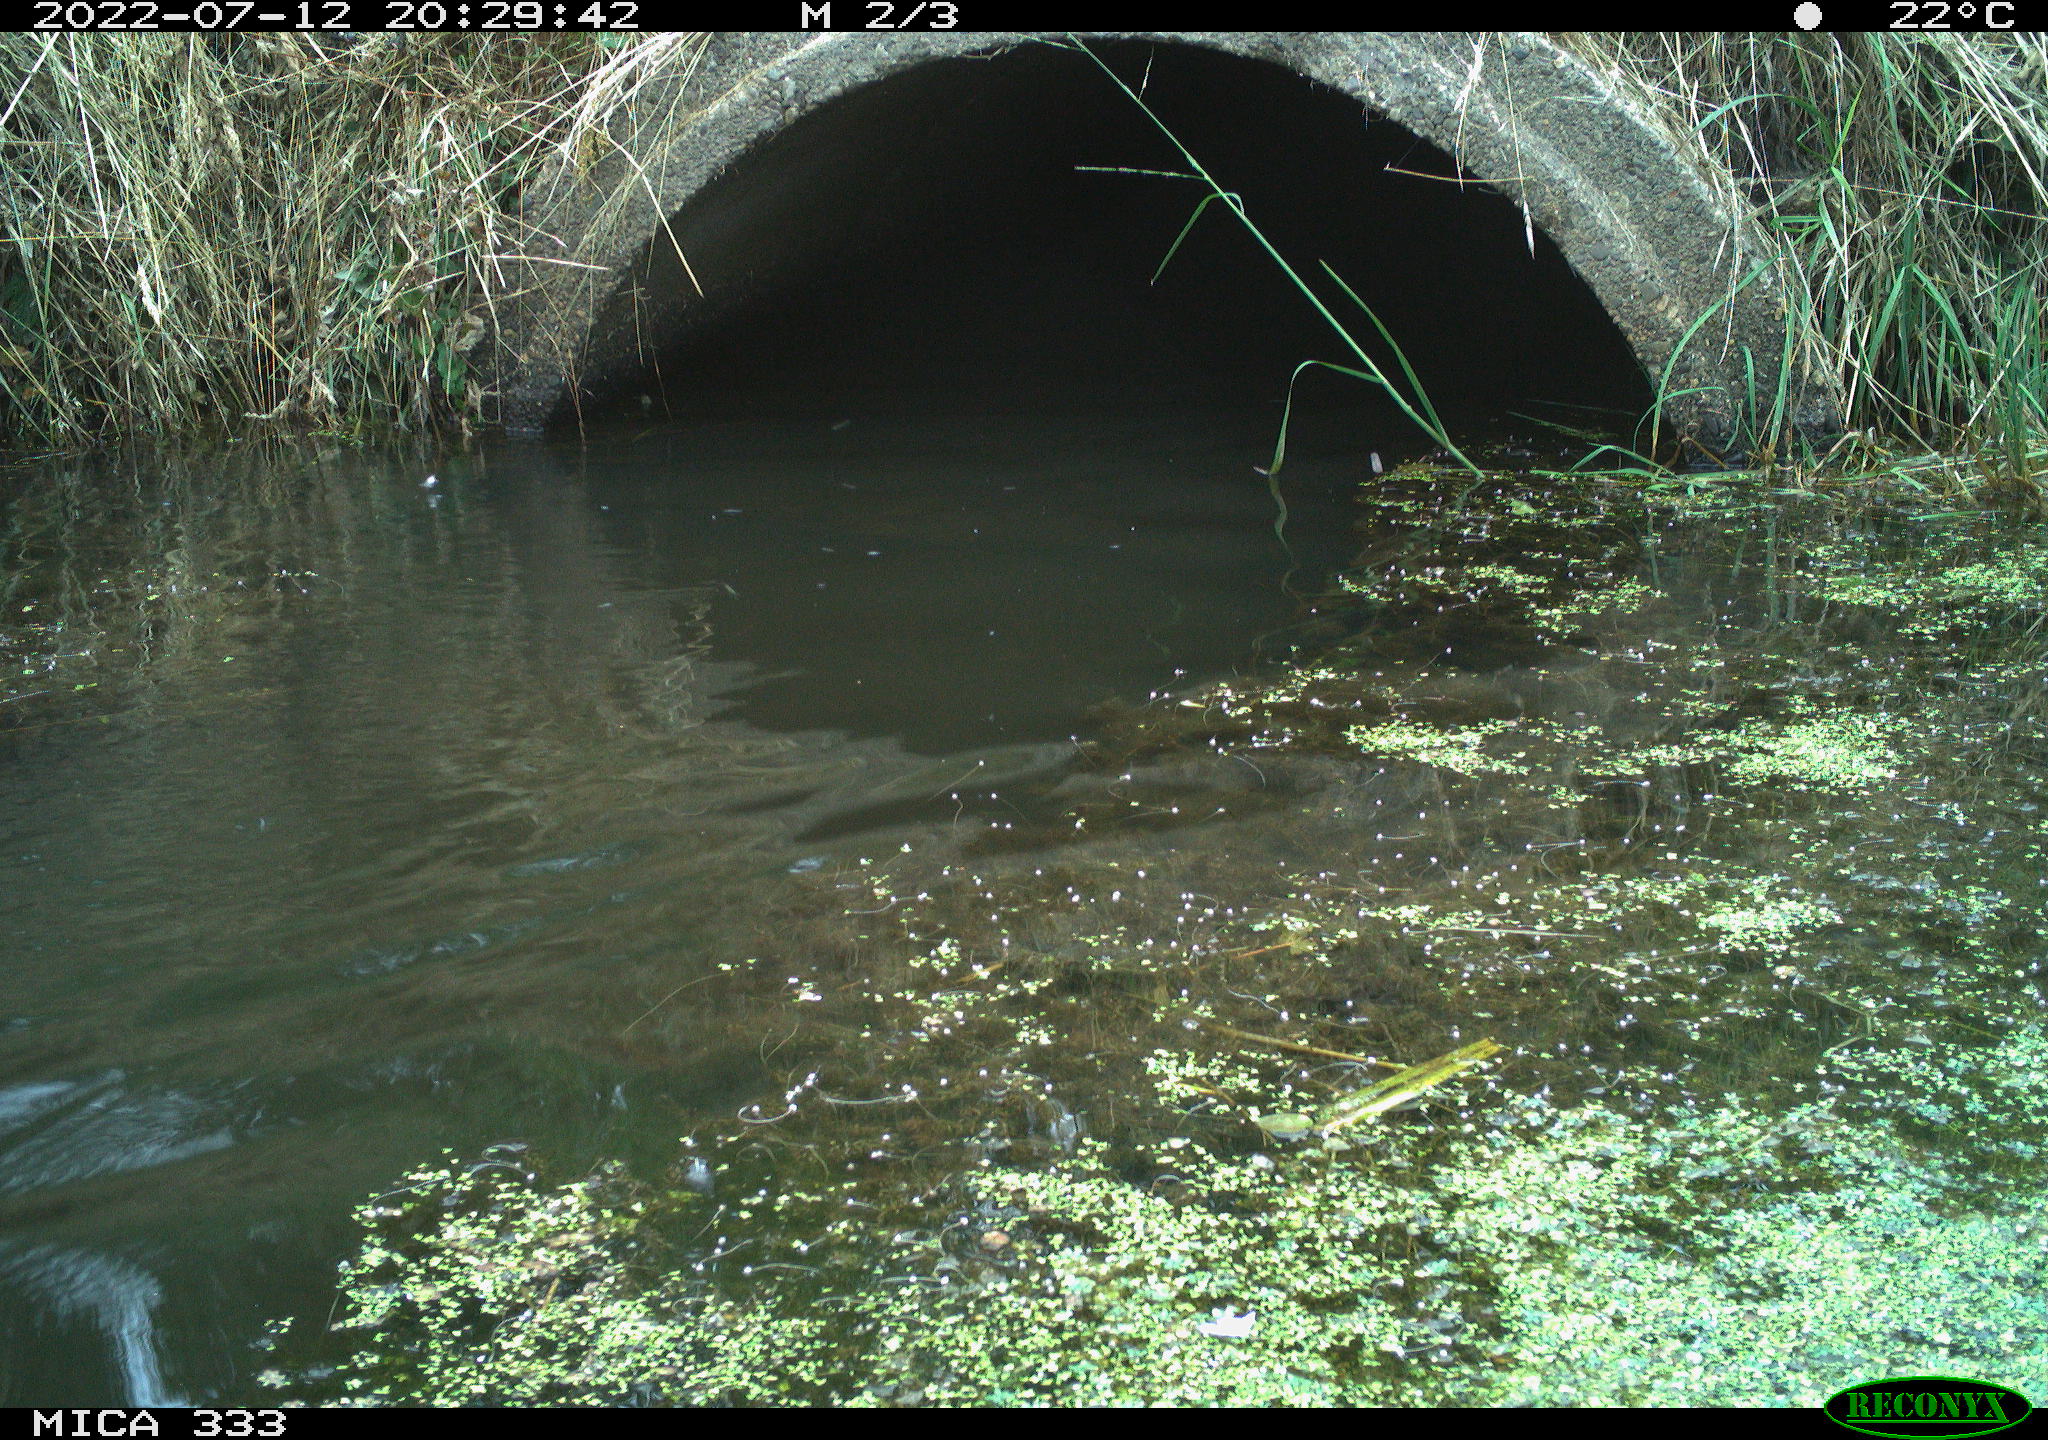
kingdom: Animalia
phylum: Chordata
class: Aves
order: Anseriformes
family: Anatidae
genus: Anas
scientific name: Anas platyrhynchos
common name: Mallard
